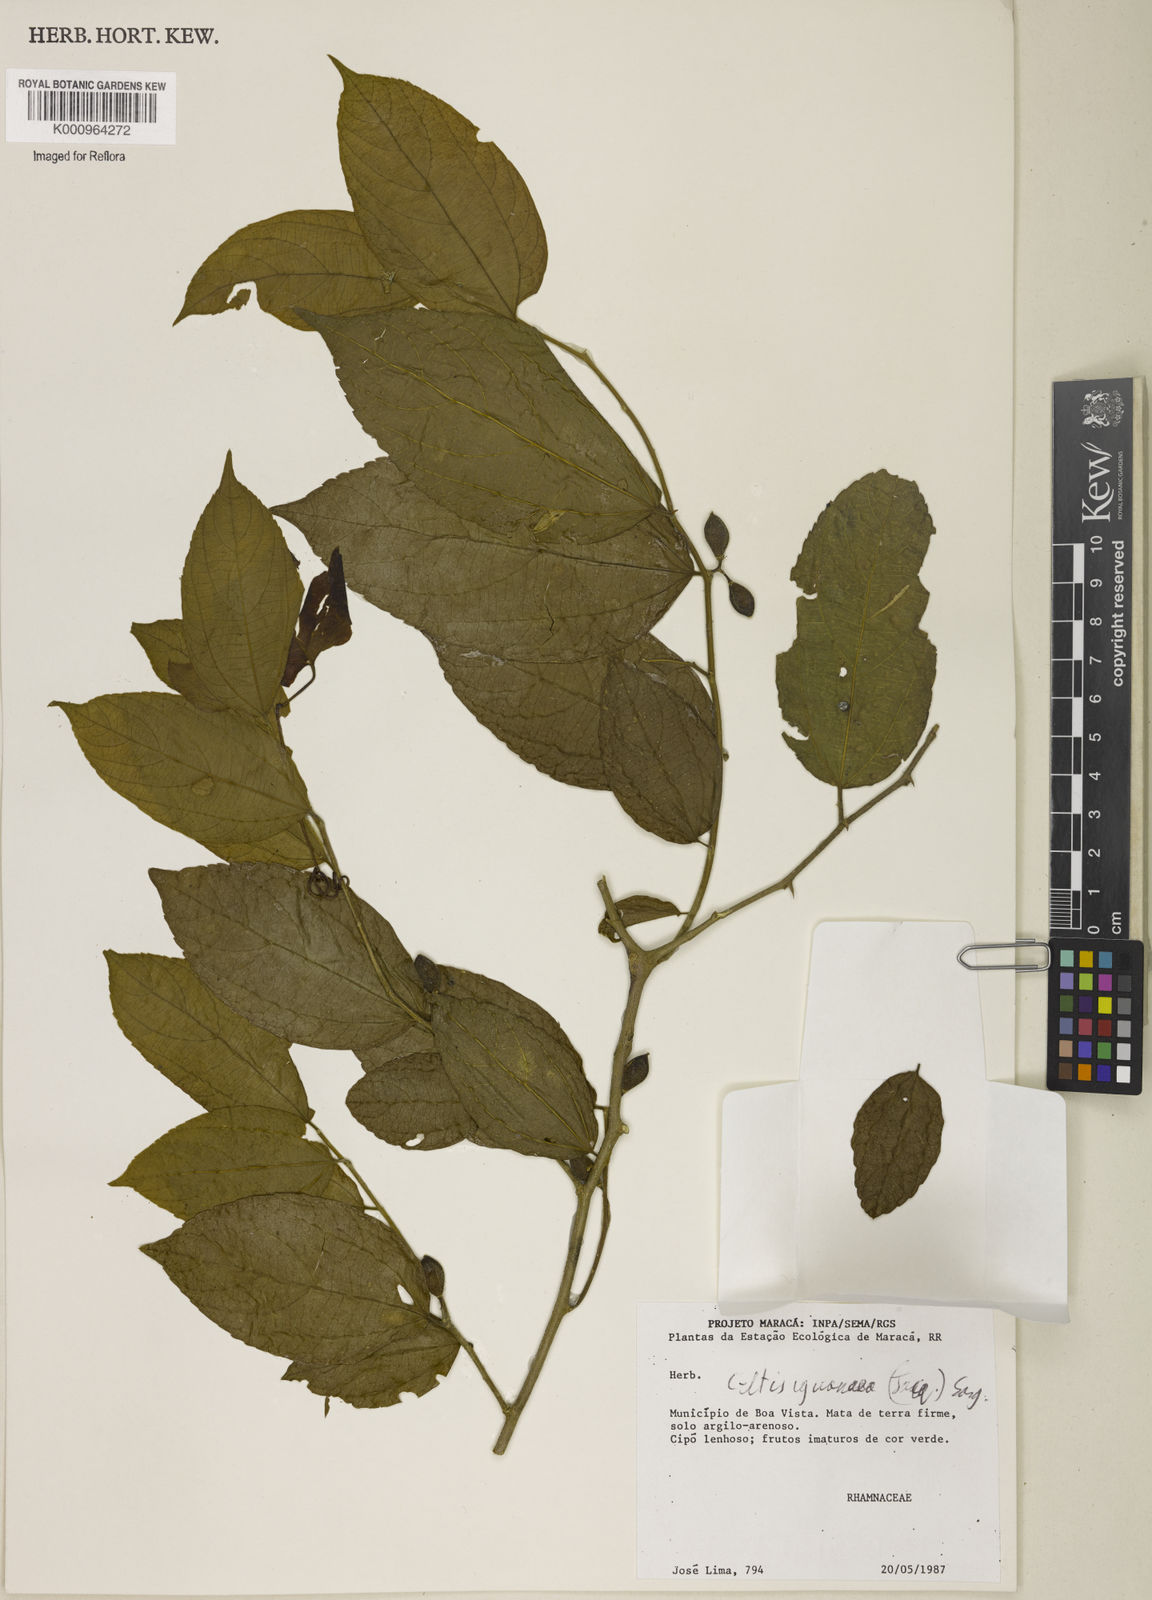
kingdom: Plantae
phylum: Tracheophyta
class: Magnoliopsida
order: Rosales
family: Cannabaceae
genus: Celtis
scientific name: Celtis iguanaea
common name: Iguana hackberry
